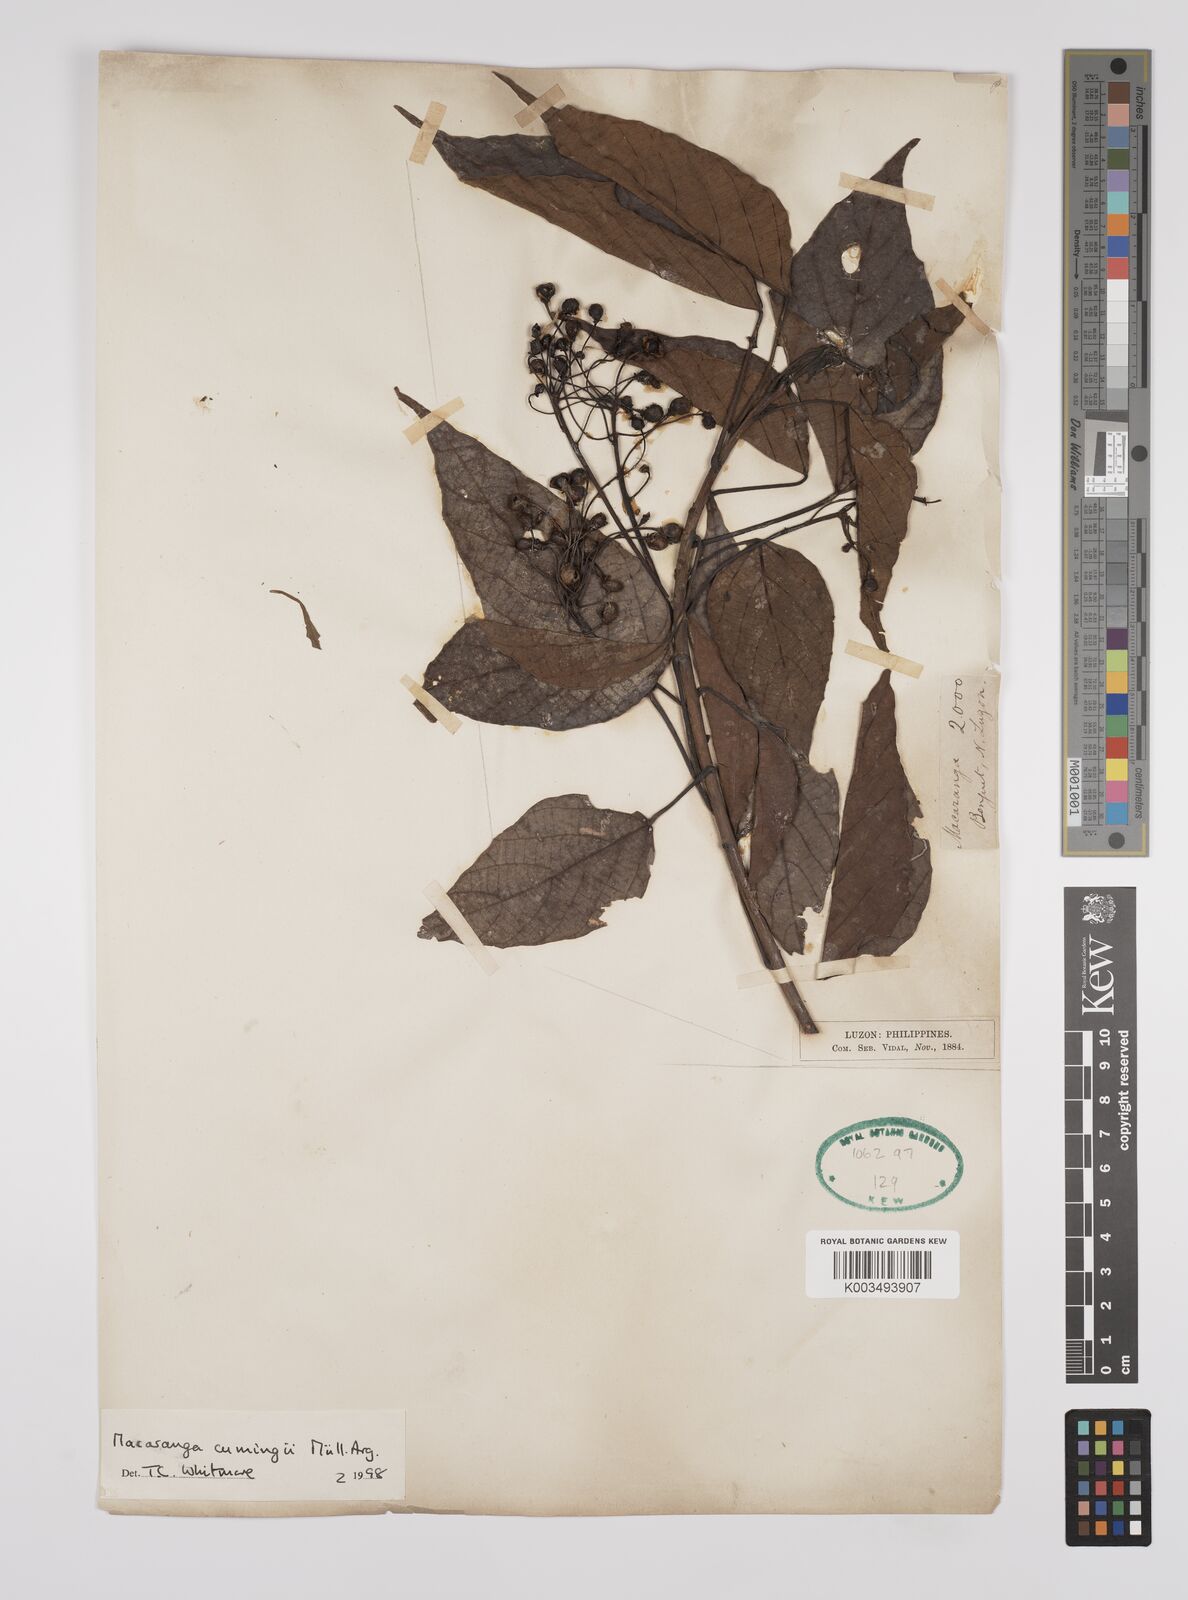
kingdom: Plantae
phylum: Tracheophyta
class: Magnoliopsida
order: Malpighiales
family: Euphorbiaceae
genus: Macaranga
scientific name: Macaranga cumingii
